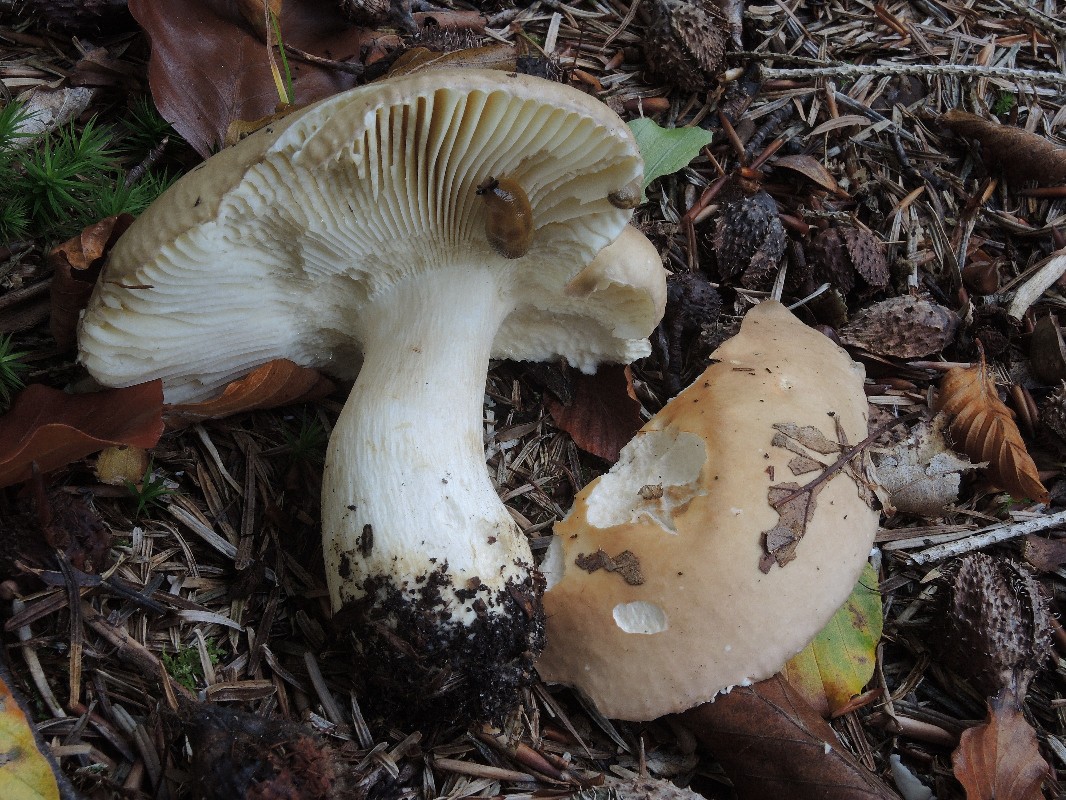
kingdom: Fungi
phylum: Basidiomycota
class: Agaricomycetes
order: Russulales
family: Russulaceae
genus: Russula
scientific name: Russula faginea
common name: bøge-skørhat
